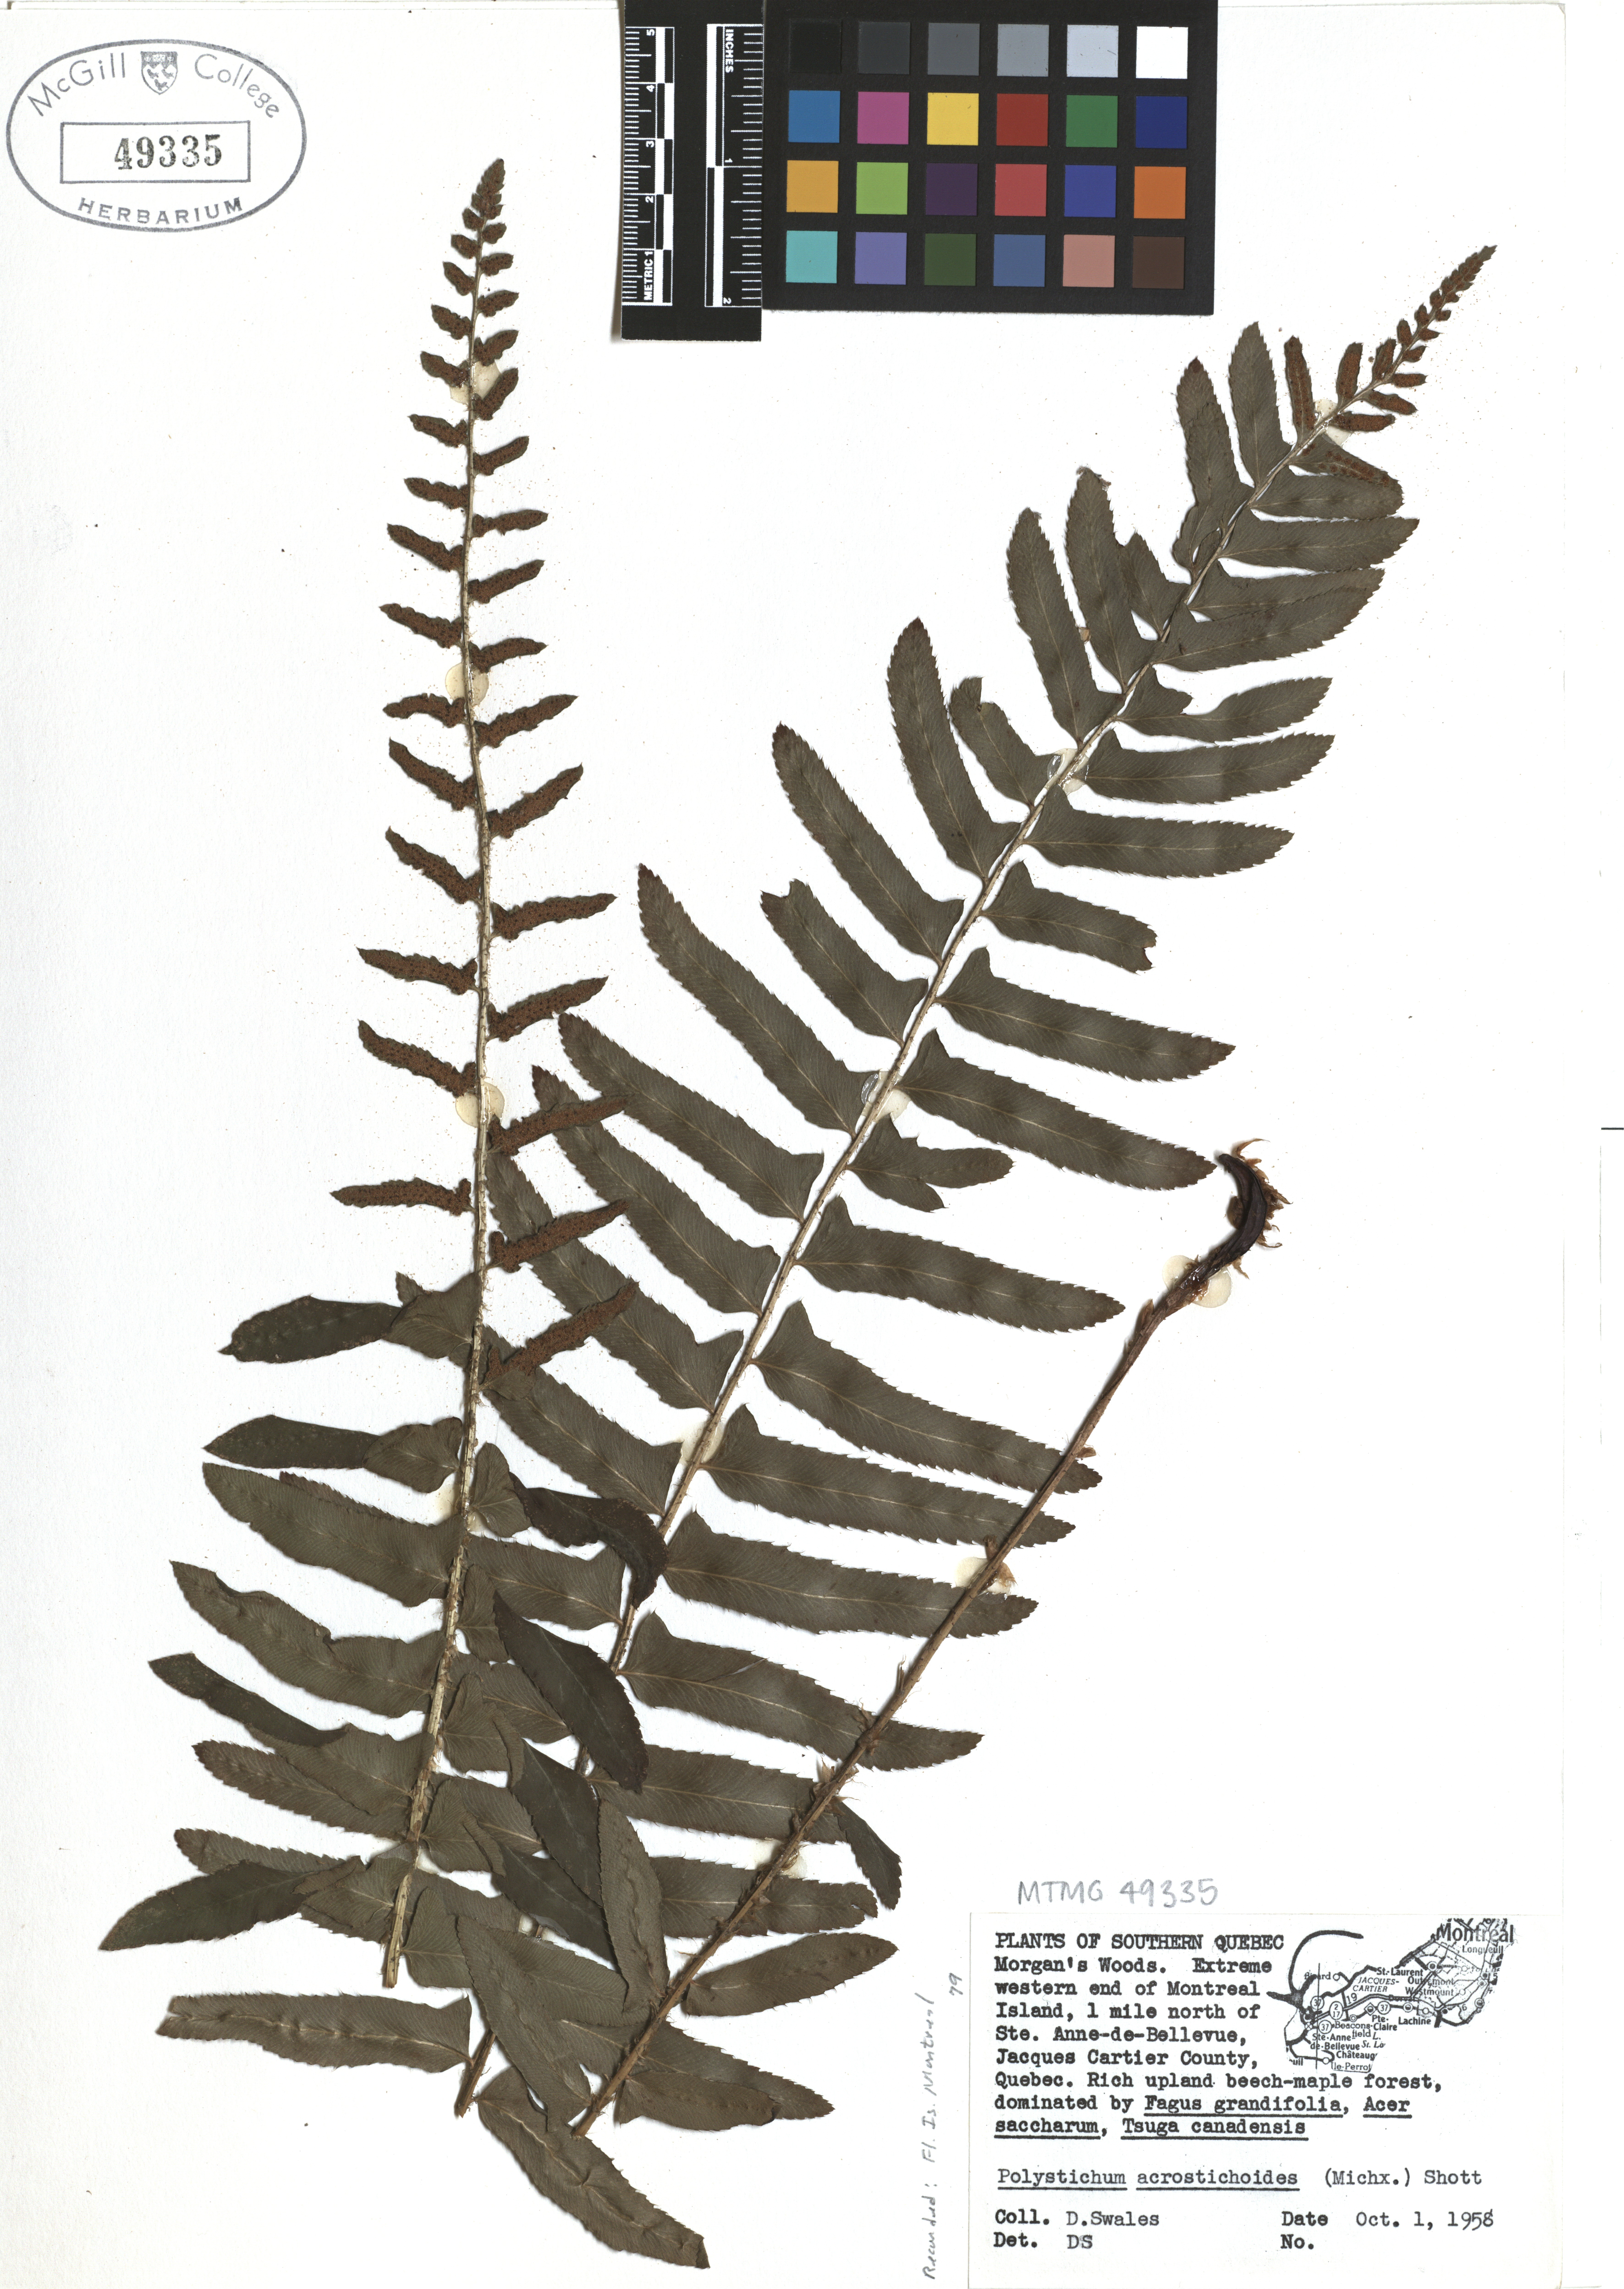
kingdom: Plantae
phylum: Tracheophyta
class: Polypodiopsida
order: Polypodiales
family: Dryopteridaceae
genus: Polystichum
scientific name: Polystichum acrostichoides
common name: Christmas fern
